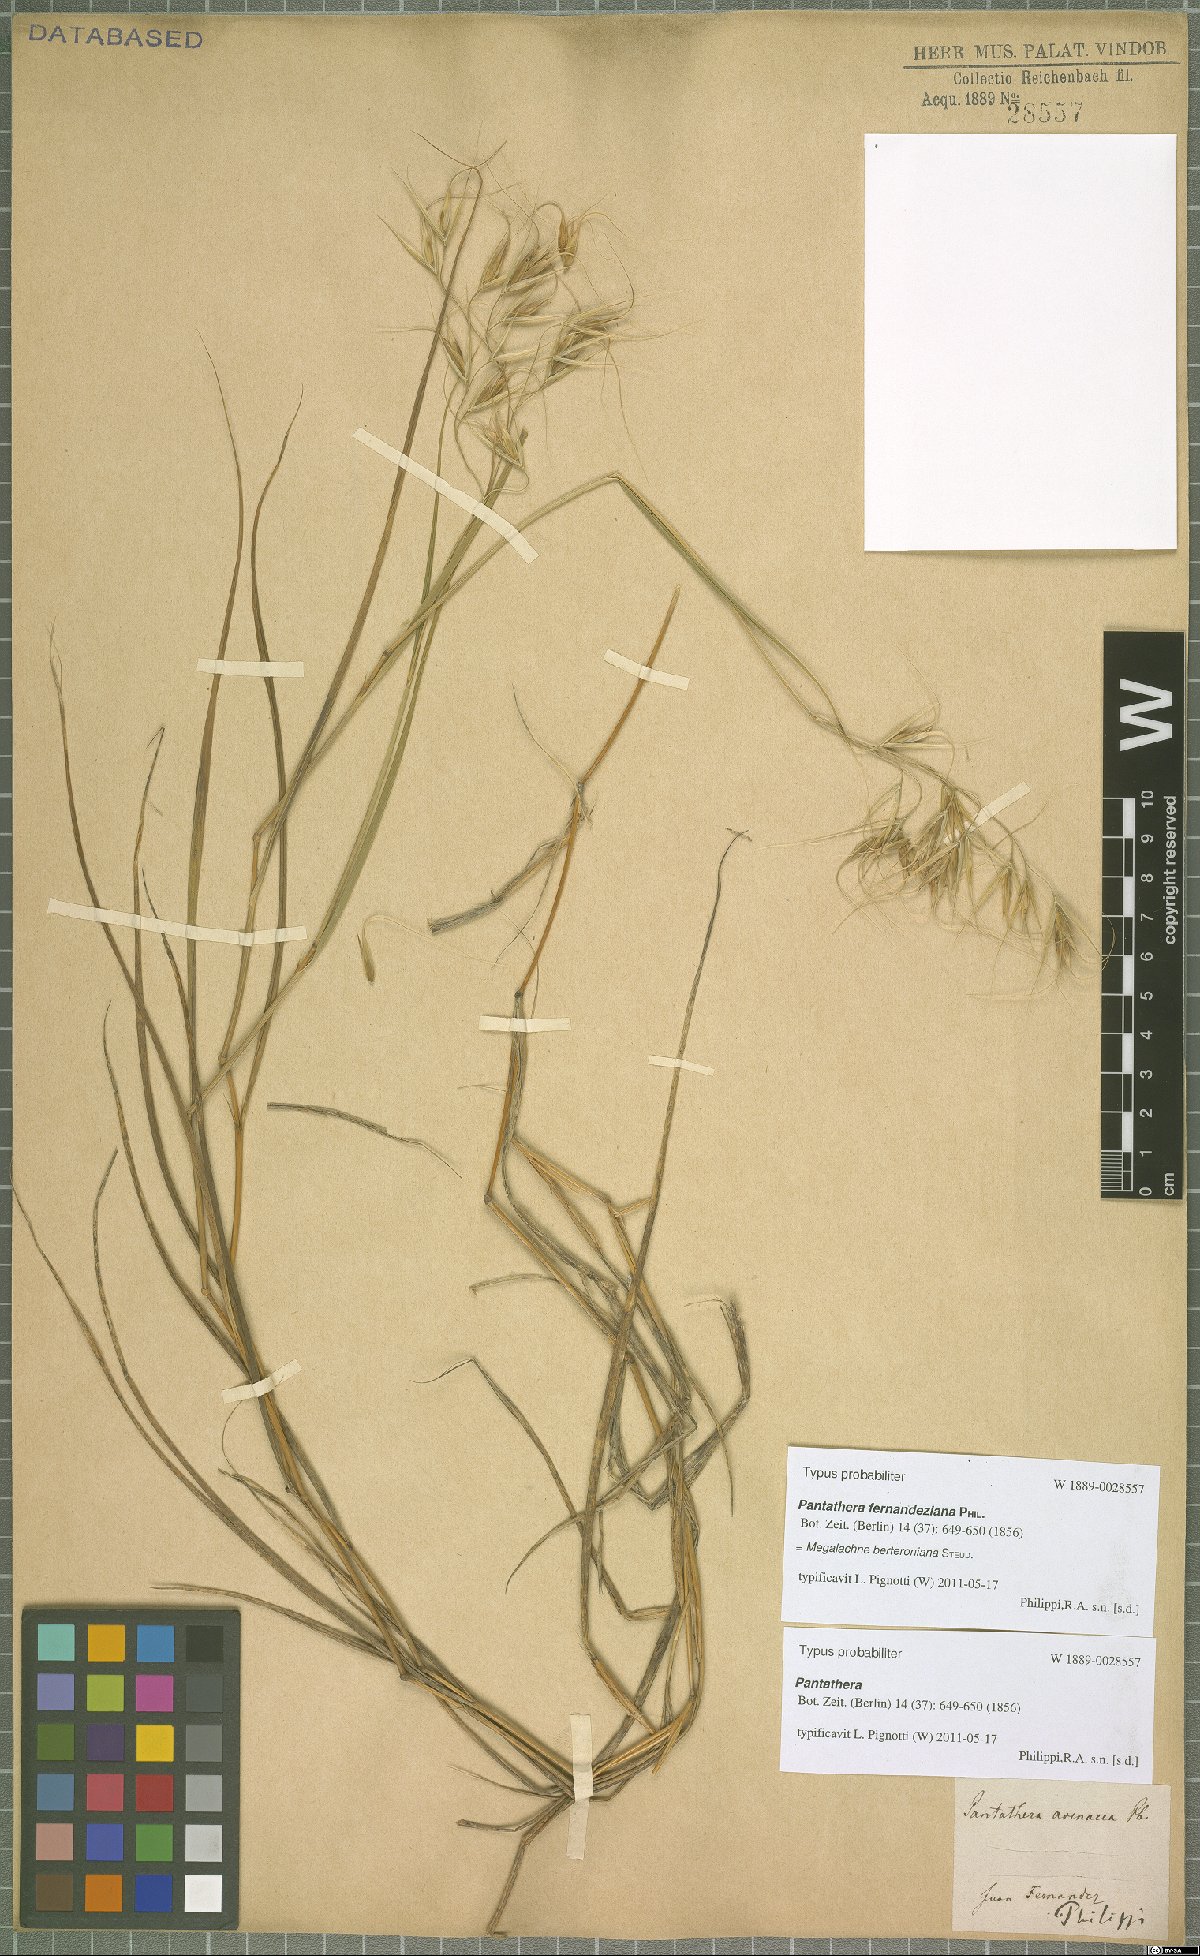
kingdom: Plantae
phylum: Tracheophyta
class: Liliopsida
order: Poales
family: Poaceae
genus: Megalachne
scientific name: Megalachne berteroniana
